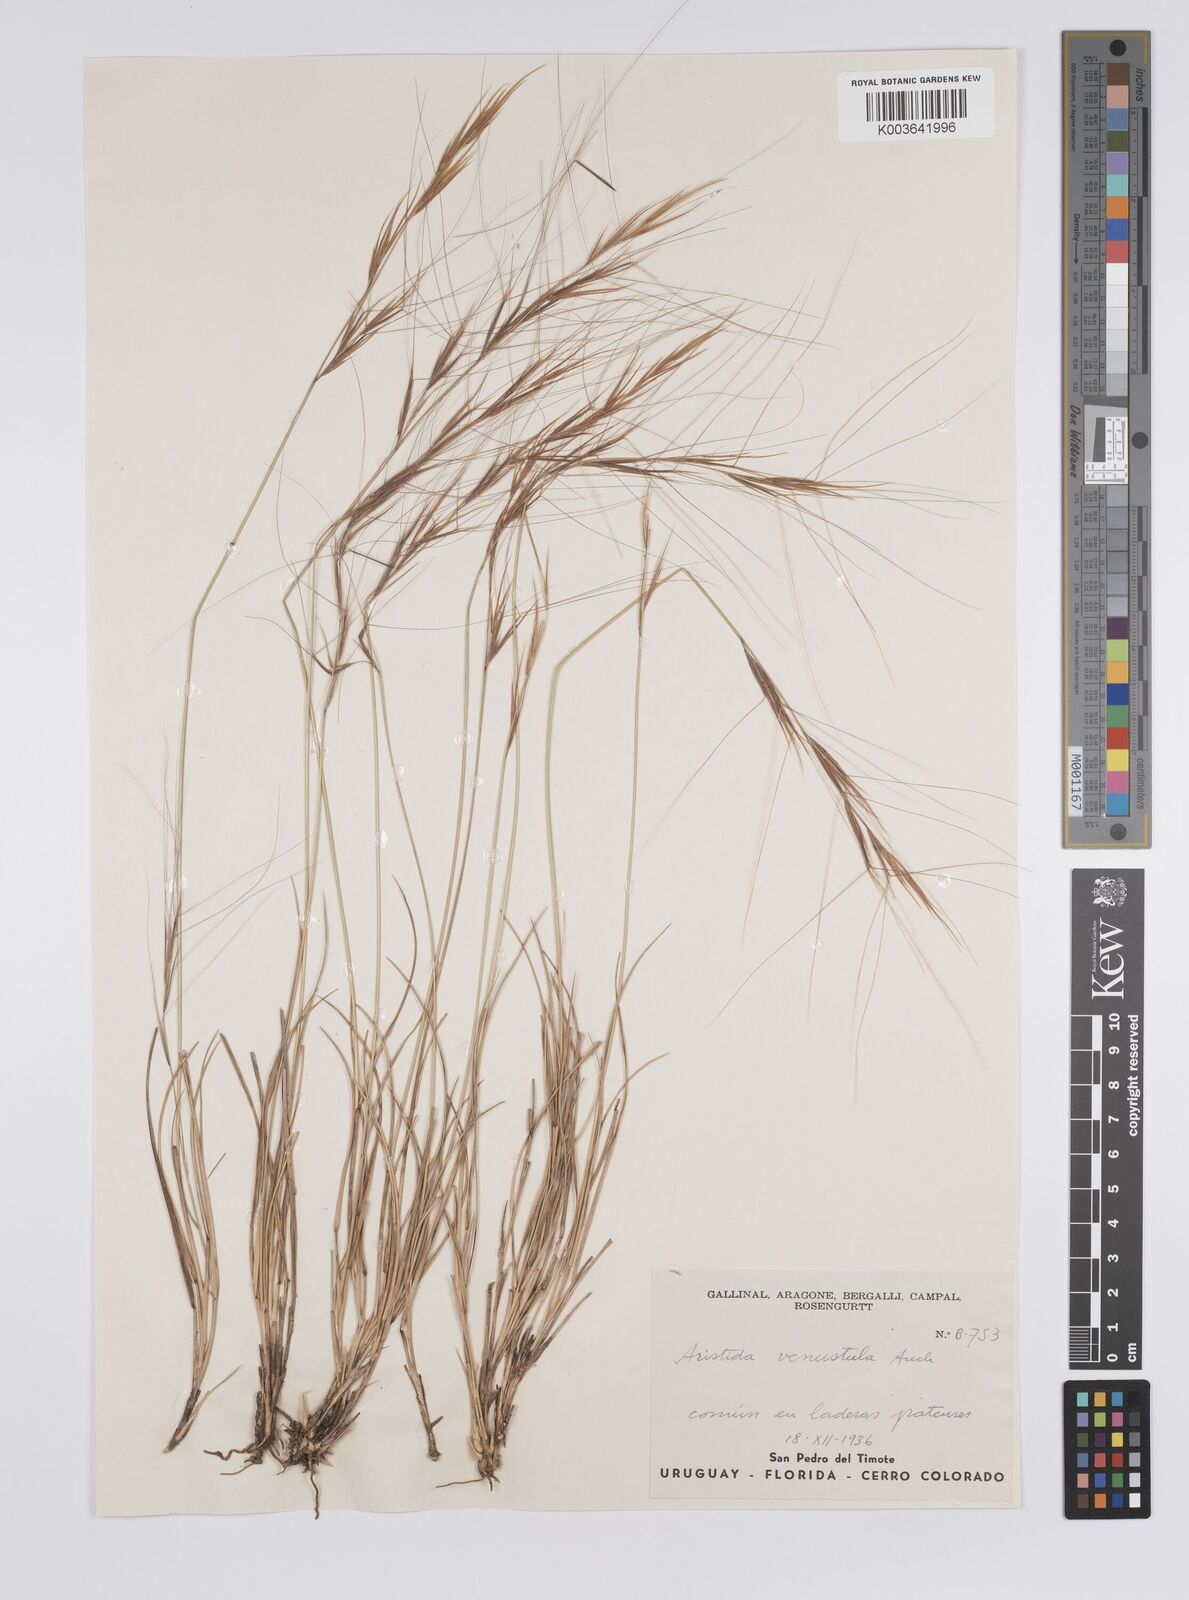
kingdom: Plantae
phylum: Tracheophyta
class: Liliopsida
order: Poales
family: Poaceae
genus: Aristida
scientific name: Aristida venustula
